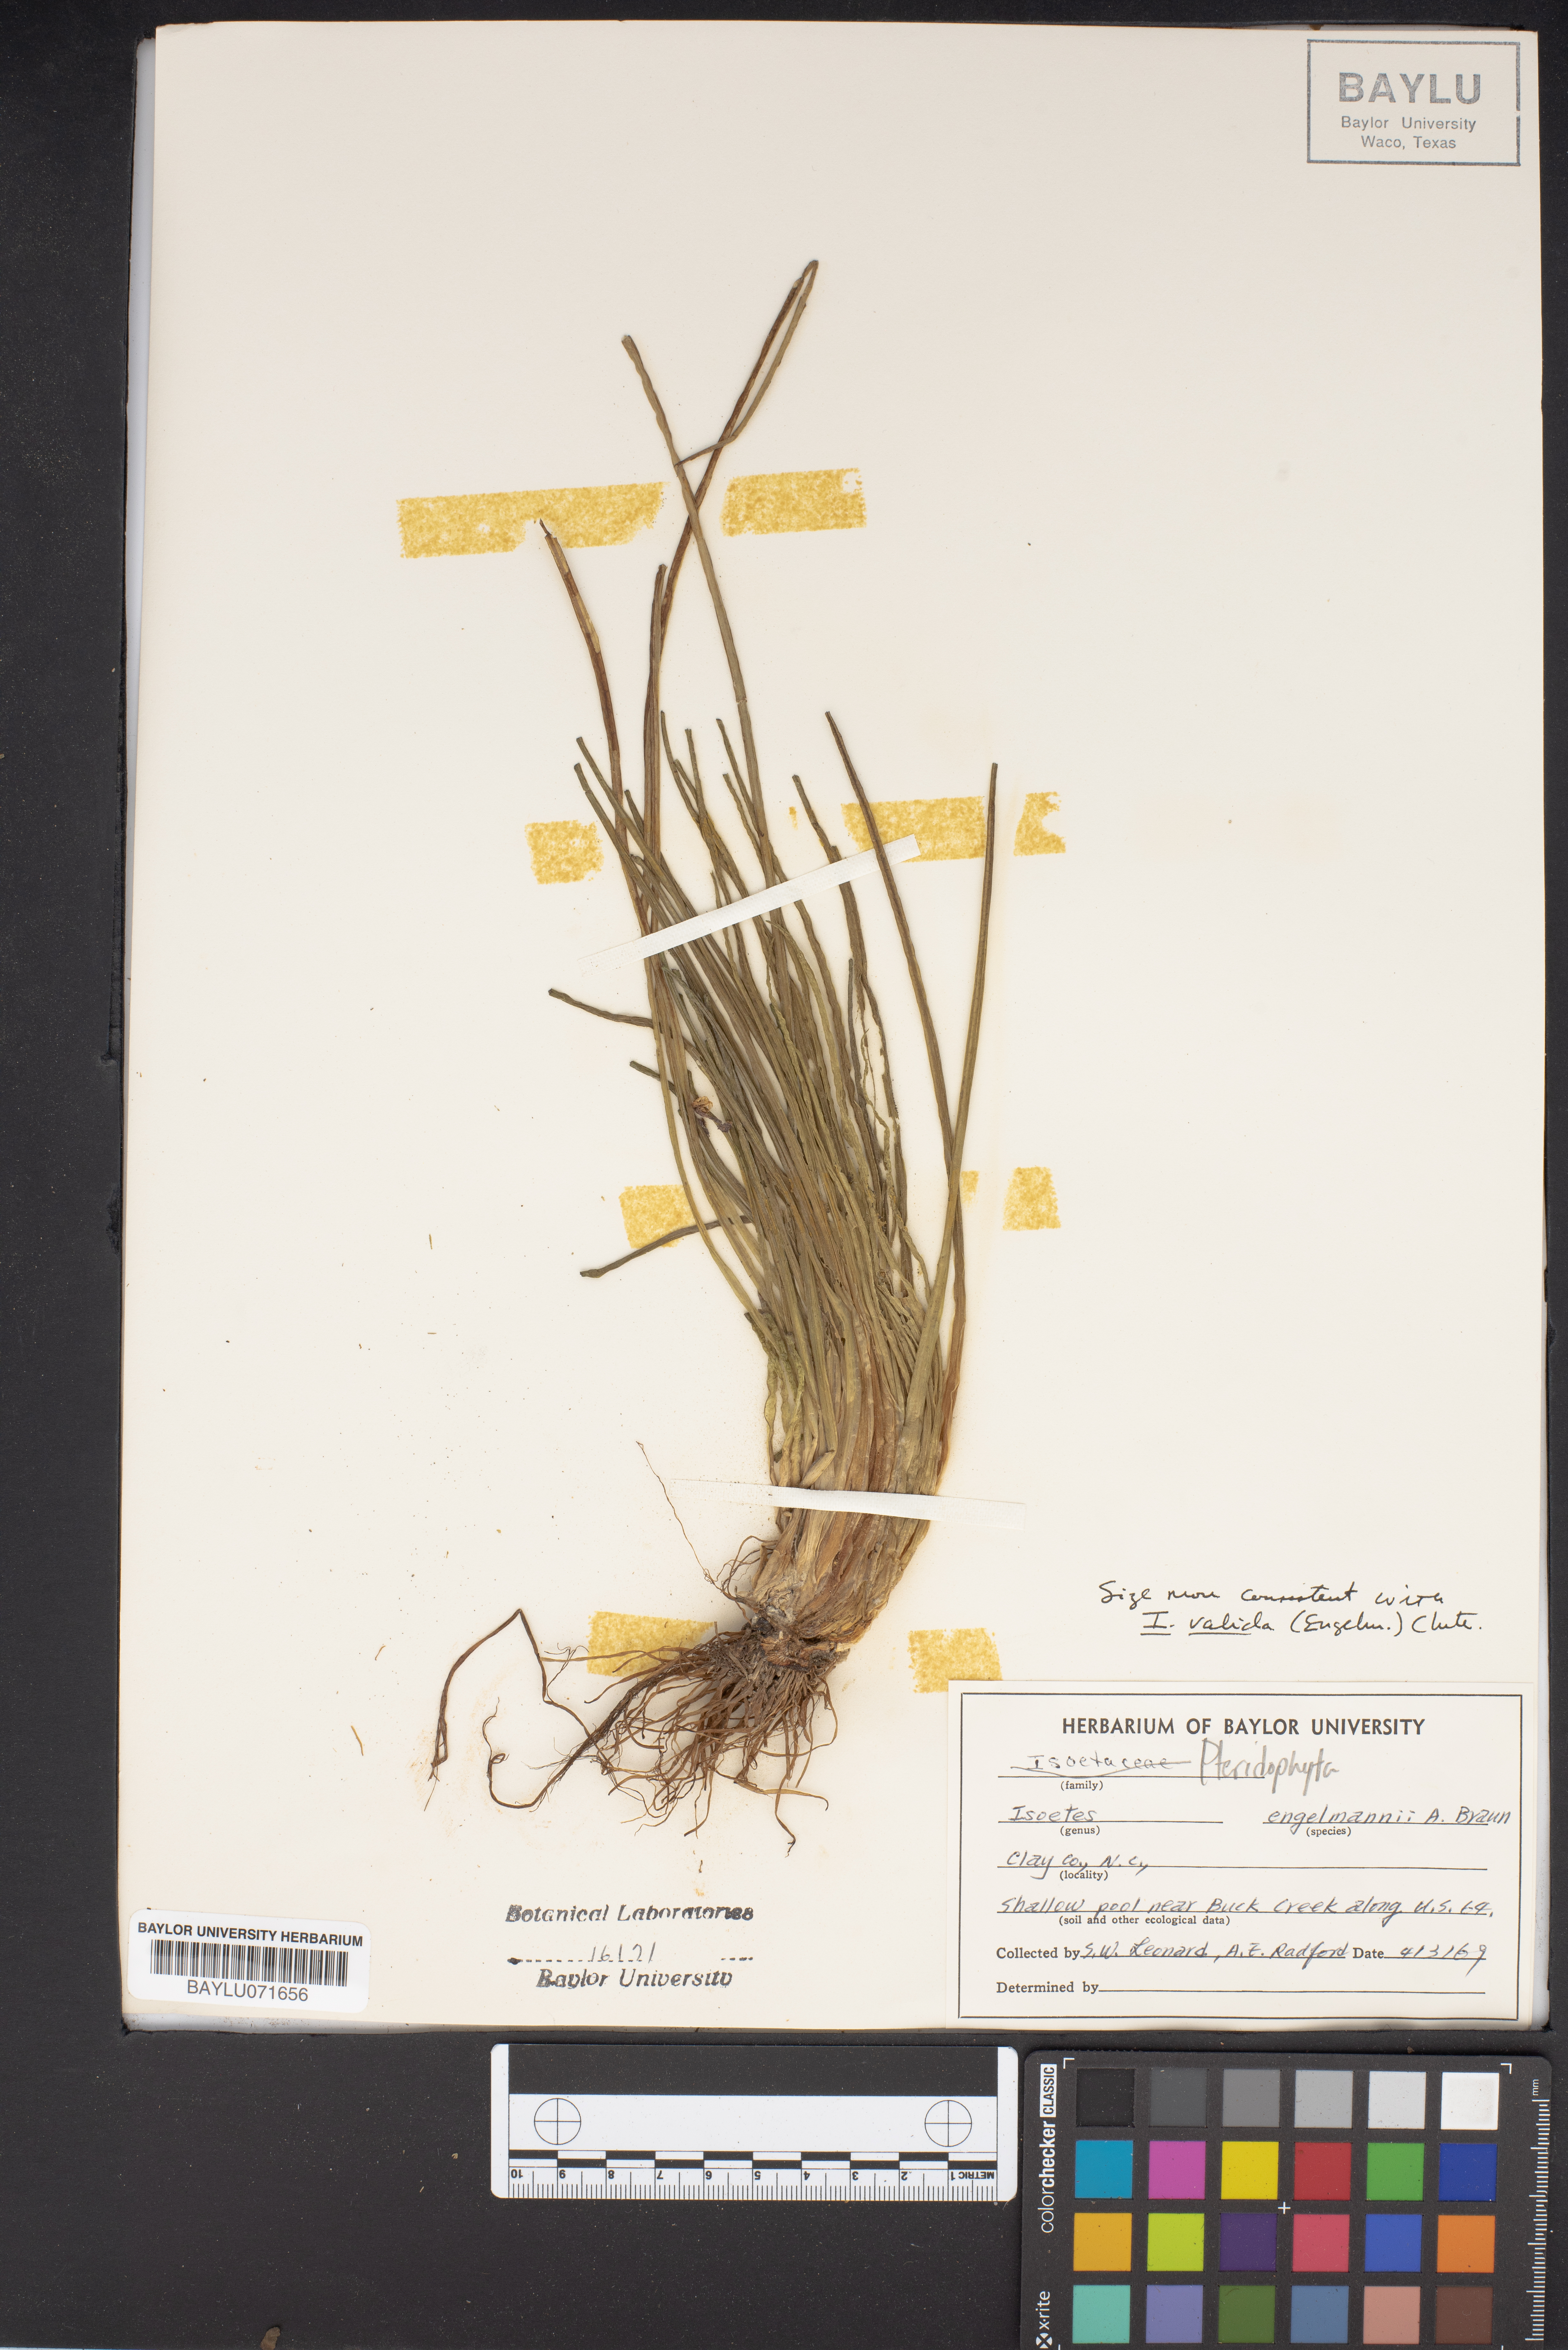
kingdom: Plantae
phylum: Tracheophyta
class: Lycopodiopsida
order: Isoetales
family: Isoetaceae
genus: Isoetes
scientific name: Isoetes engelmannii
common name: Engelmann's quillwort
